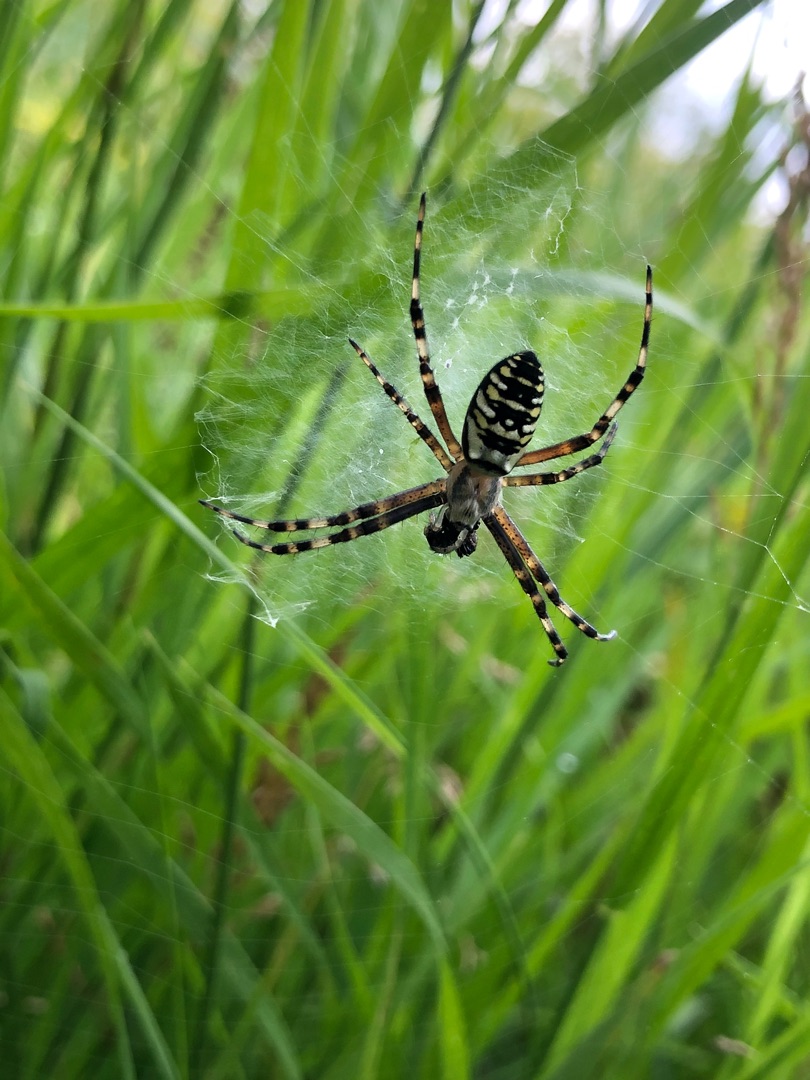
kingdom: Animalia
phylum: Arthropoda
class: Arachnida
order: Araneae
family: Araneidae
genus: Argiope
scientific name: Argiope bruennichi
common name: Hvepseedderkop
